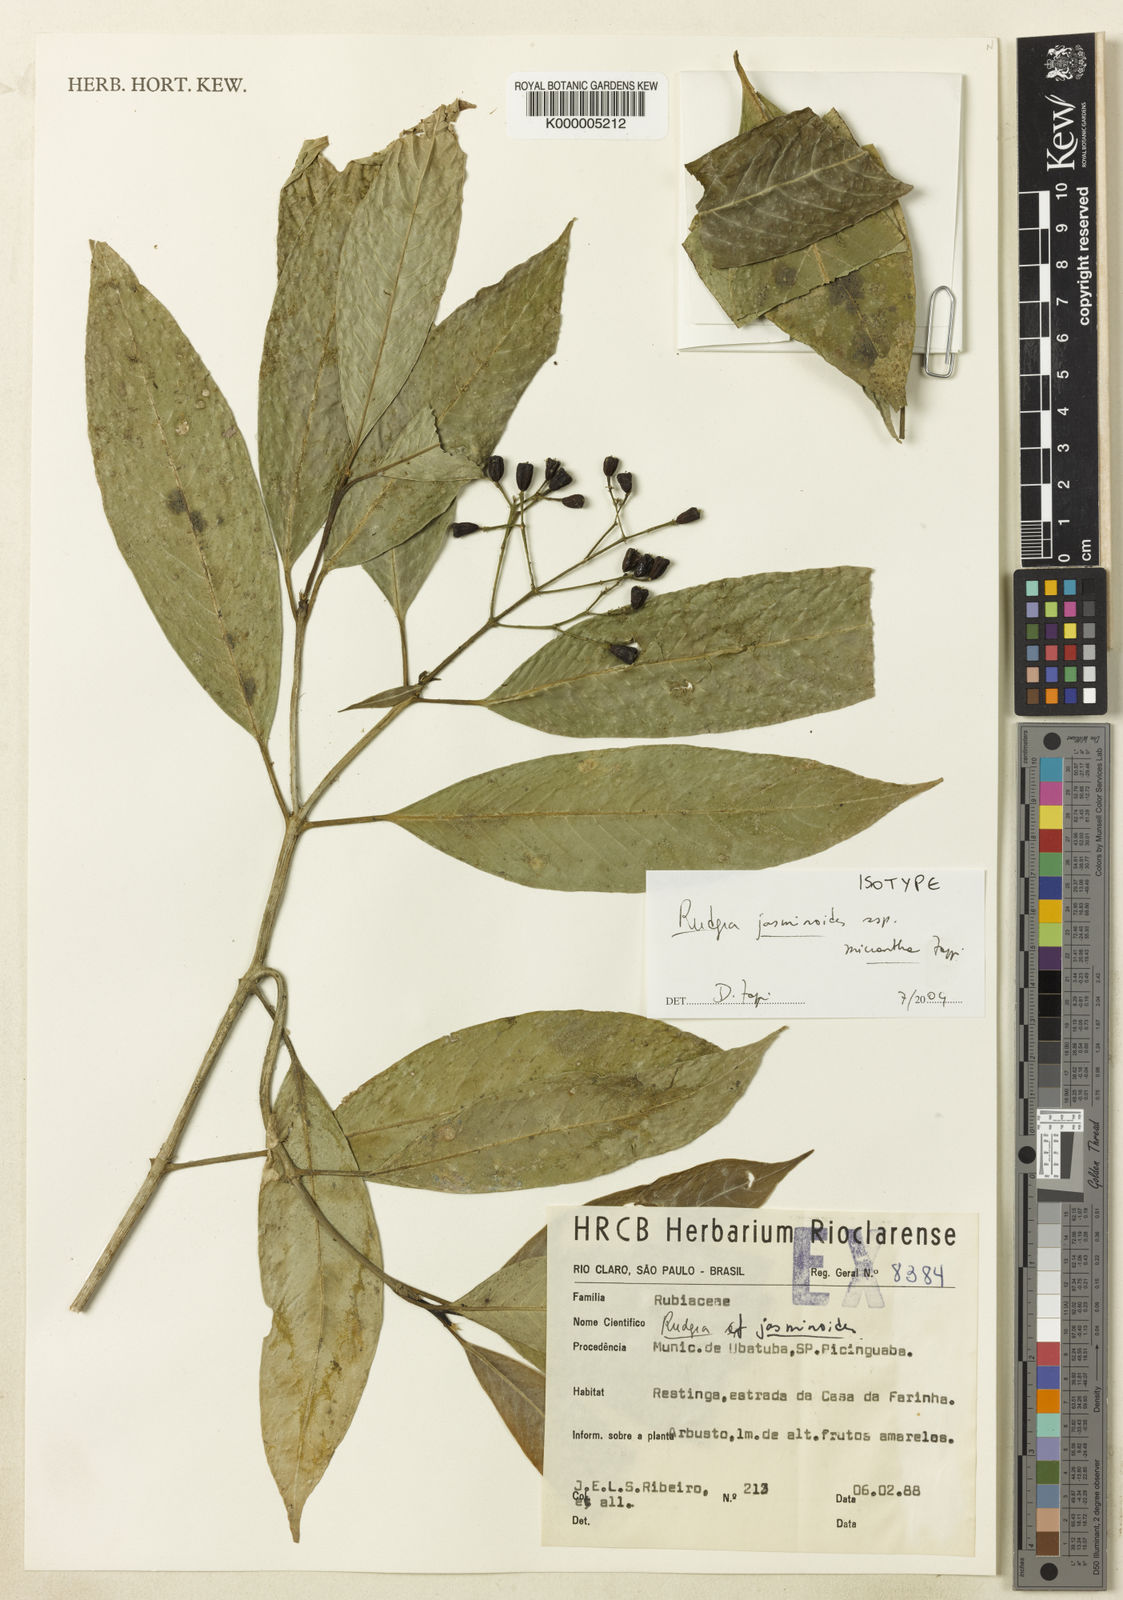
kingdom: Plantae
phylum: Tracheophyta
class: Magnoliopsida
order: Gentianales
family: Rubiaceae
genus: Rudgea
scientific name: Rudgea
